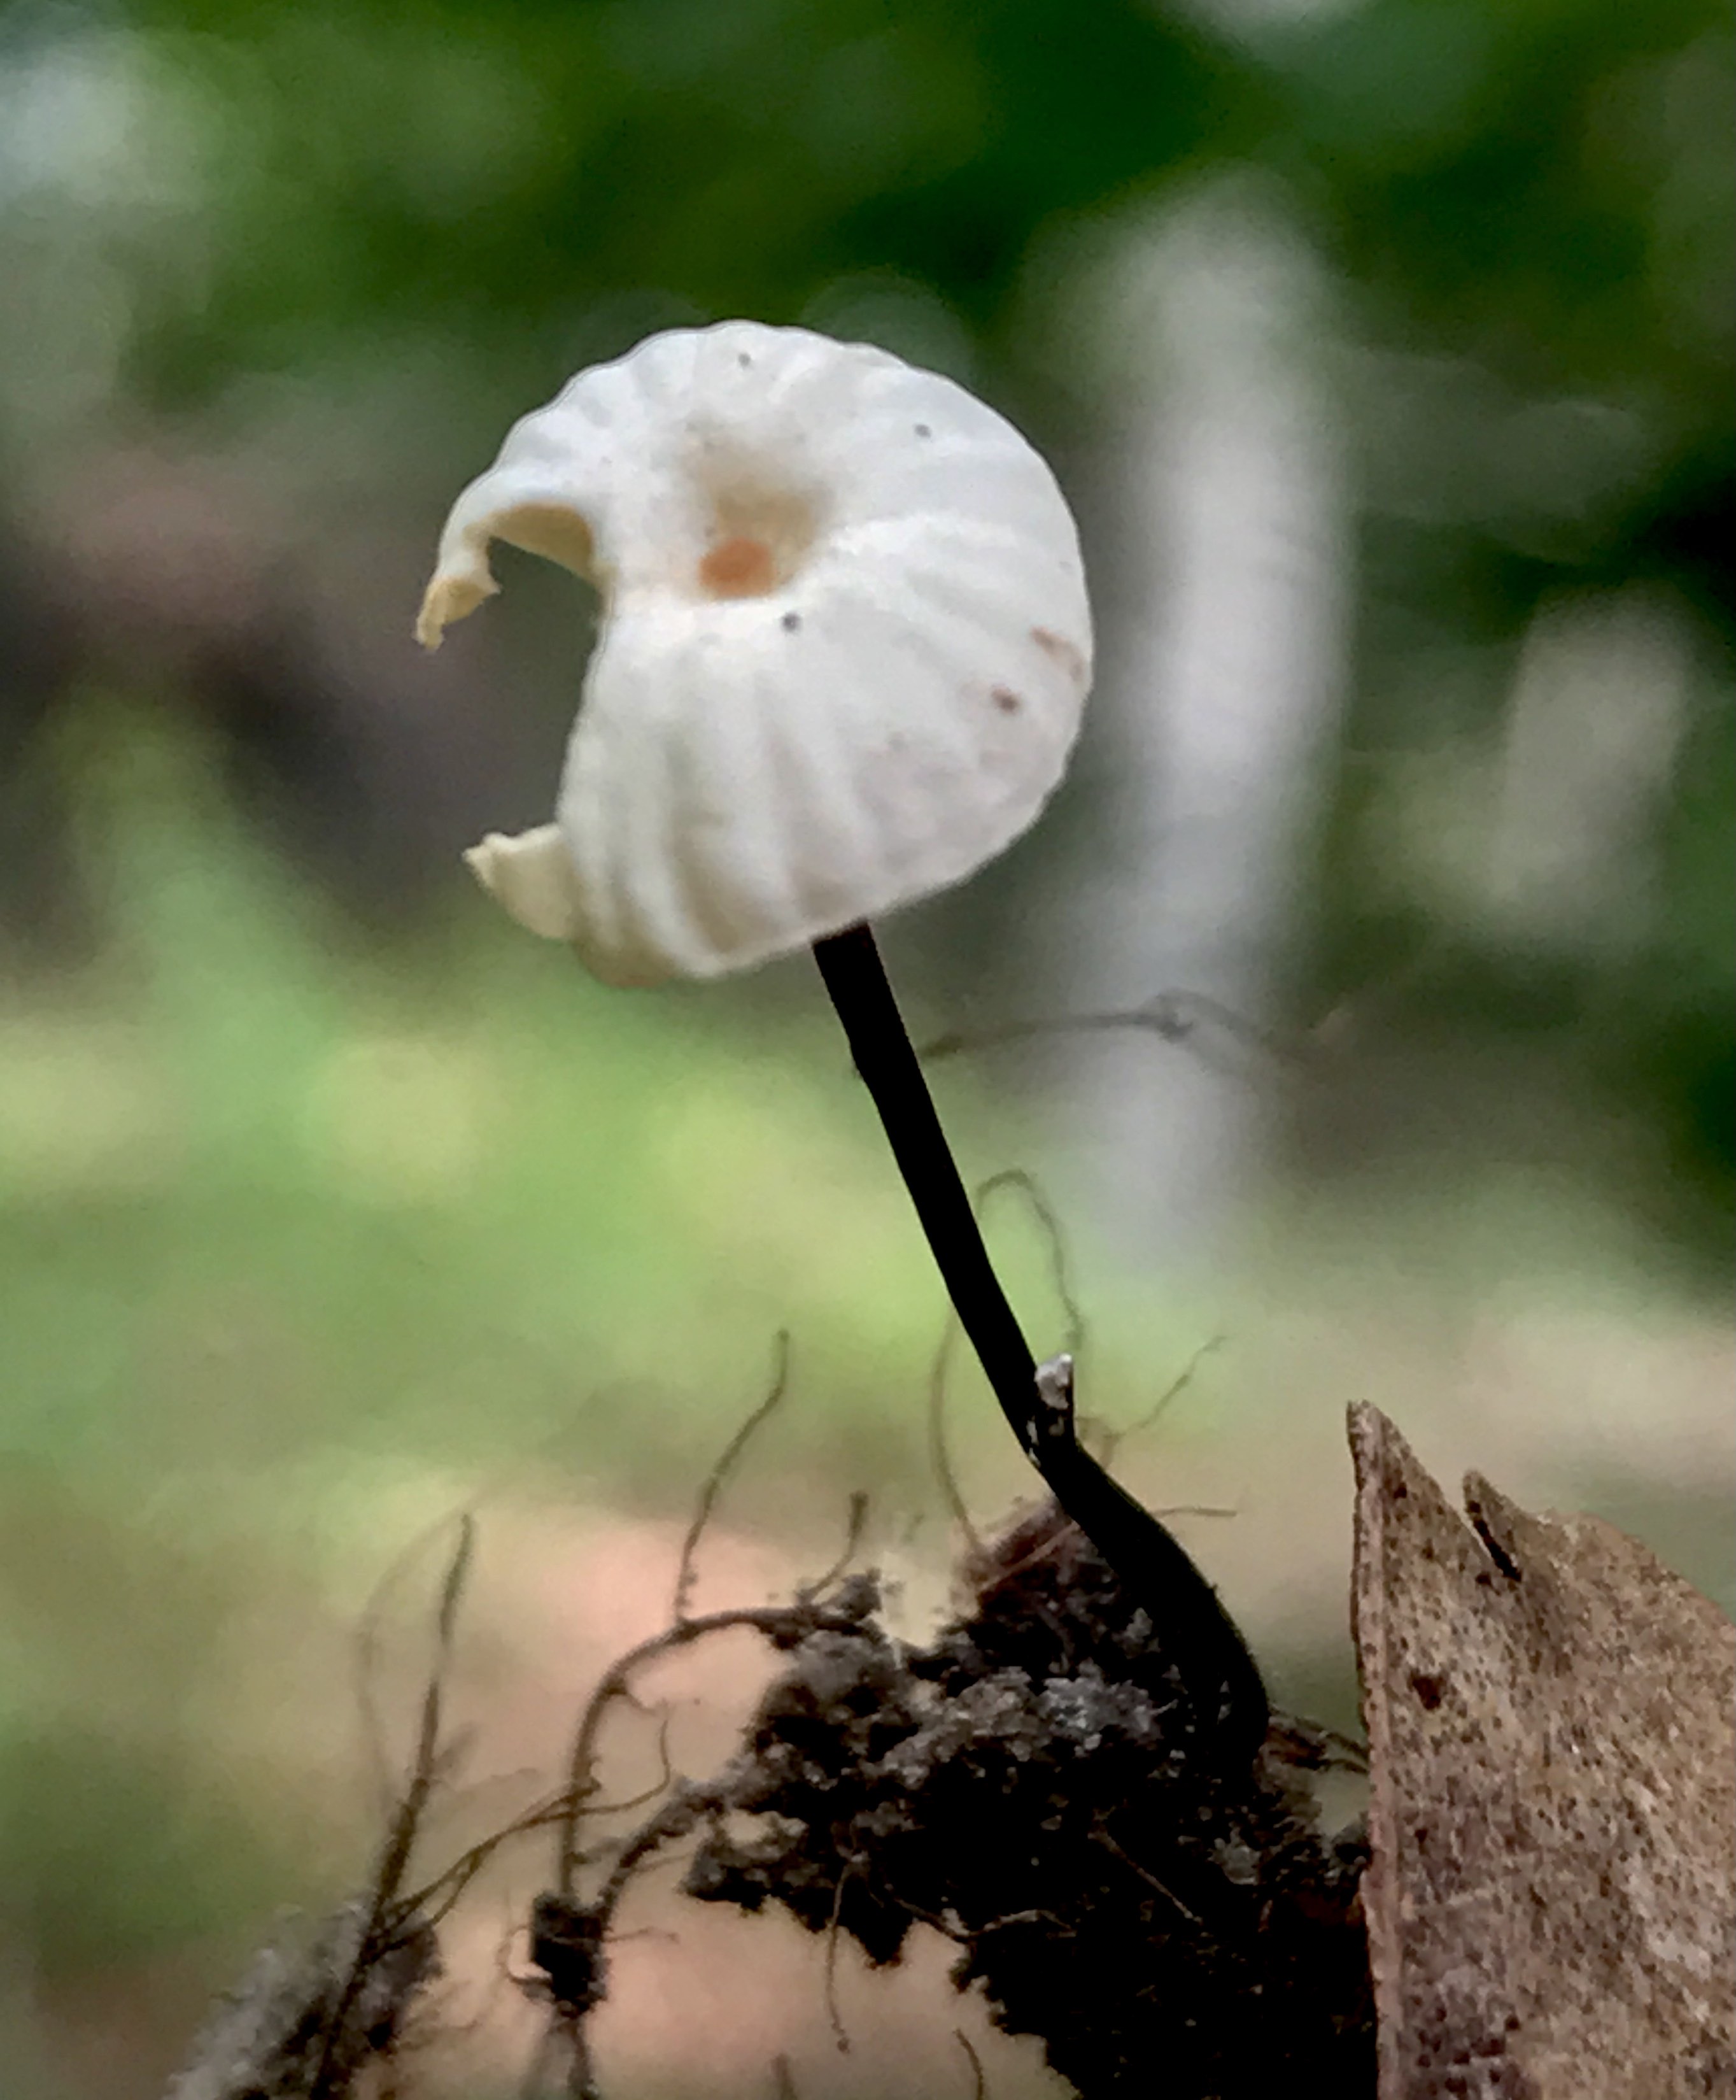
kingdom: Fungi
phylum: Basidiomycota
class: Agaricomycetes
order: Agaricales
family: Marasmiaceae
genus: Marasmius
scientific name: Marasmius rotula
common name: hjul-bruskhat
